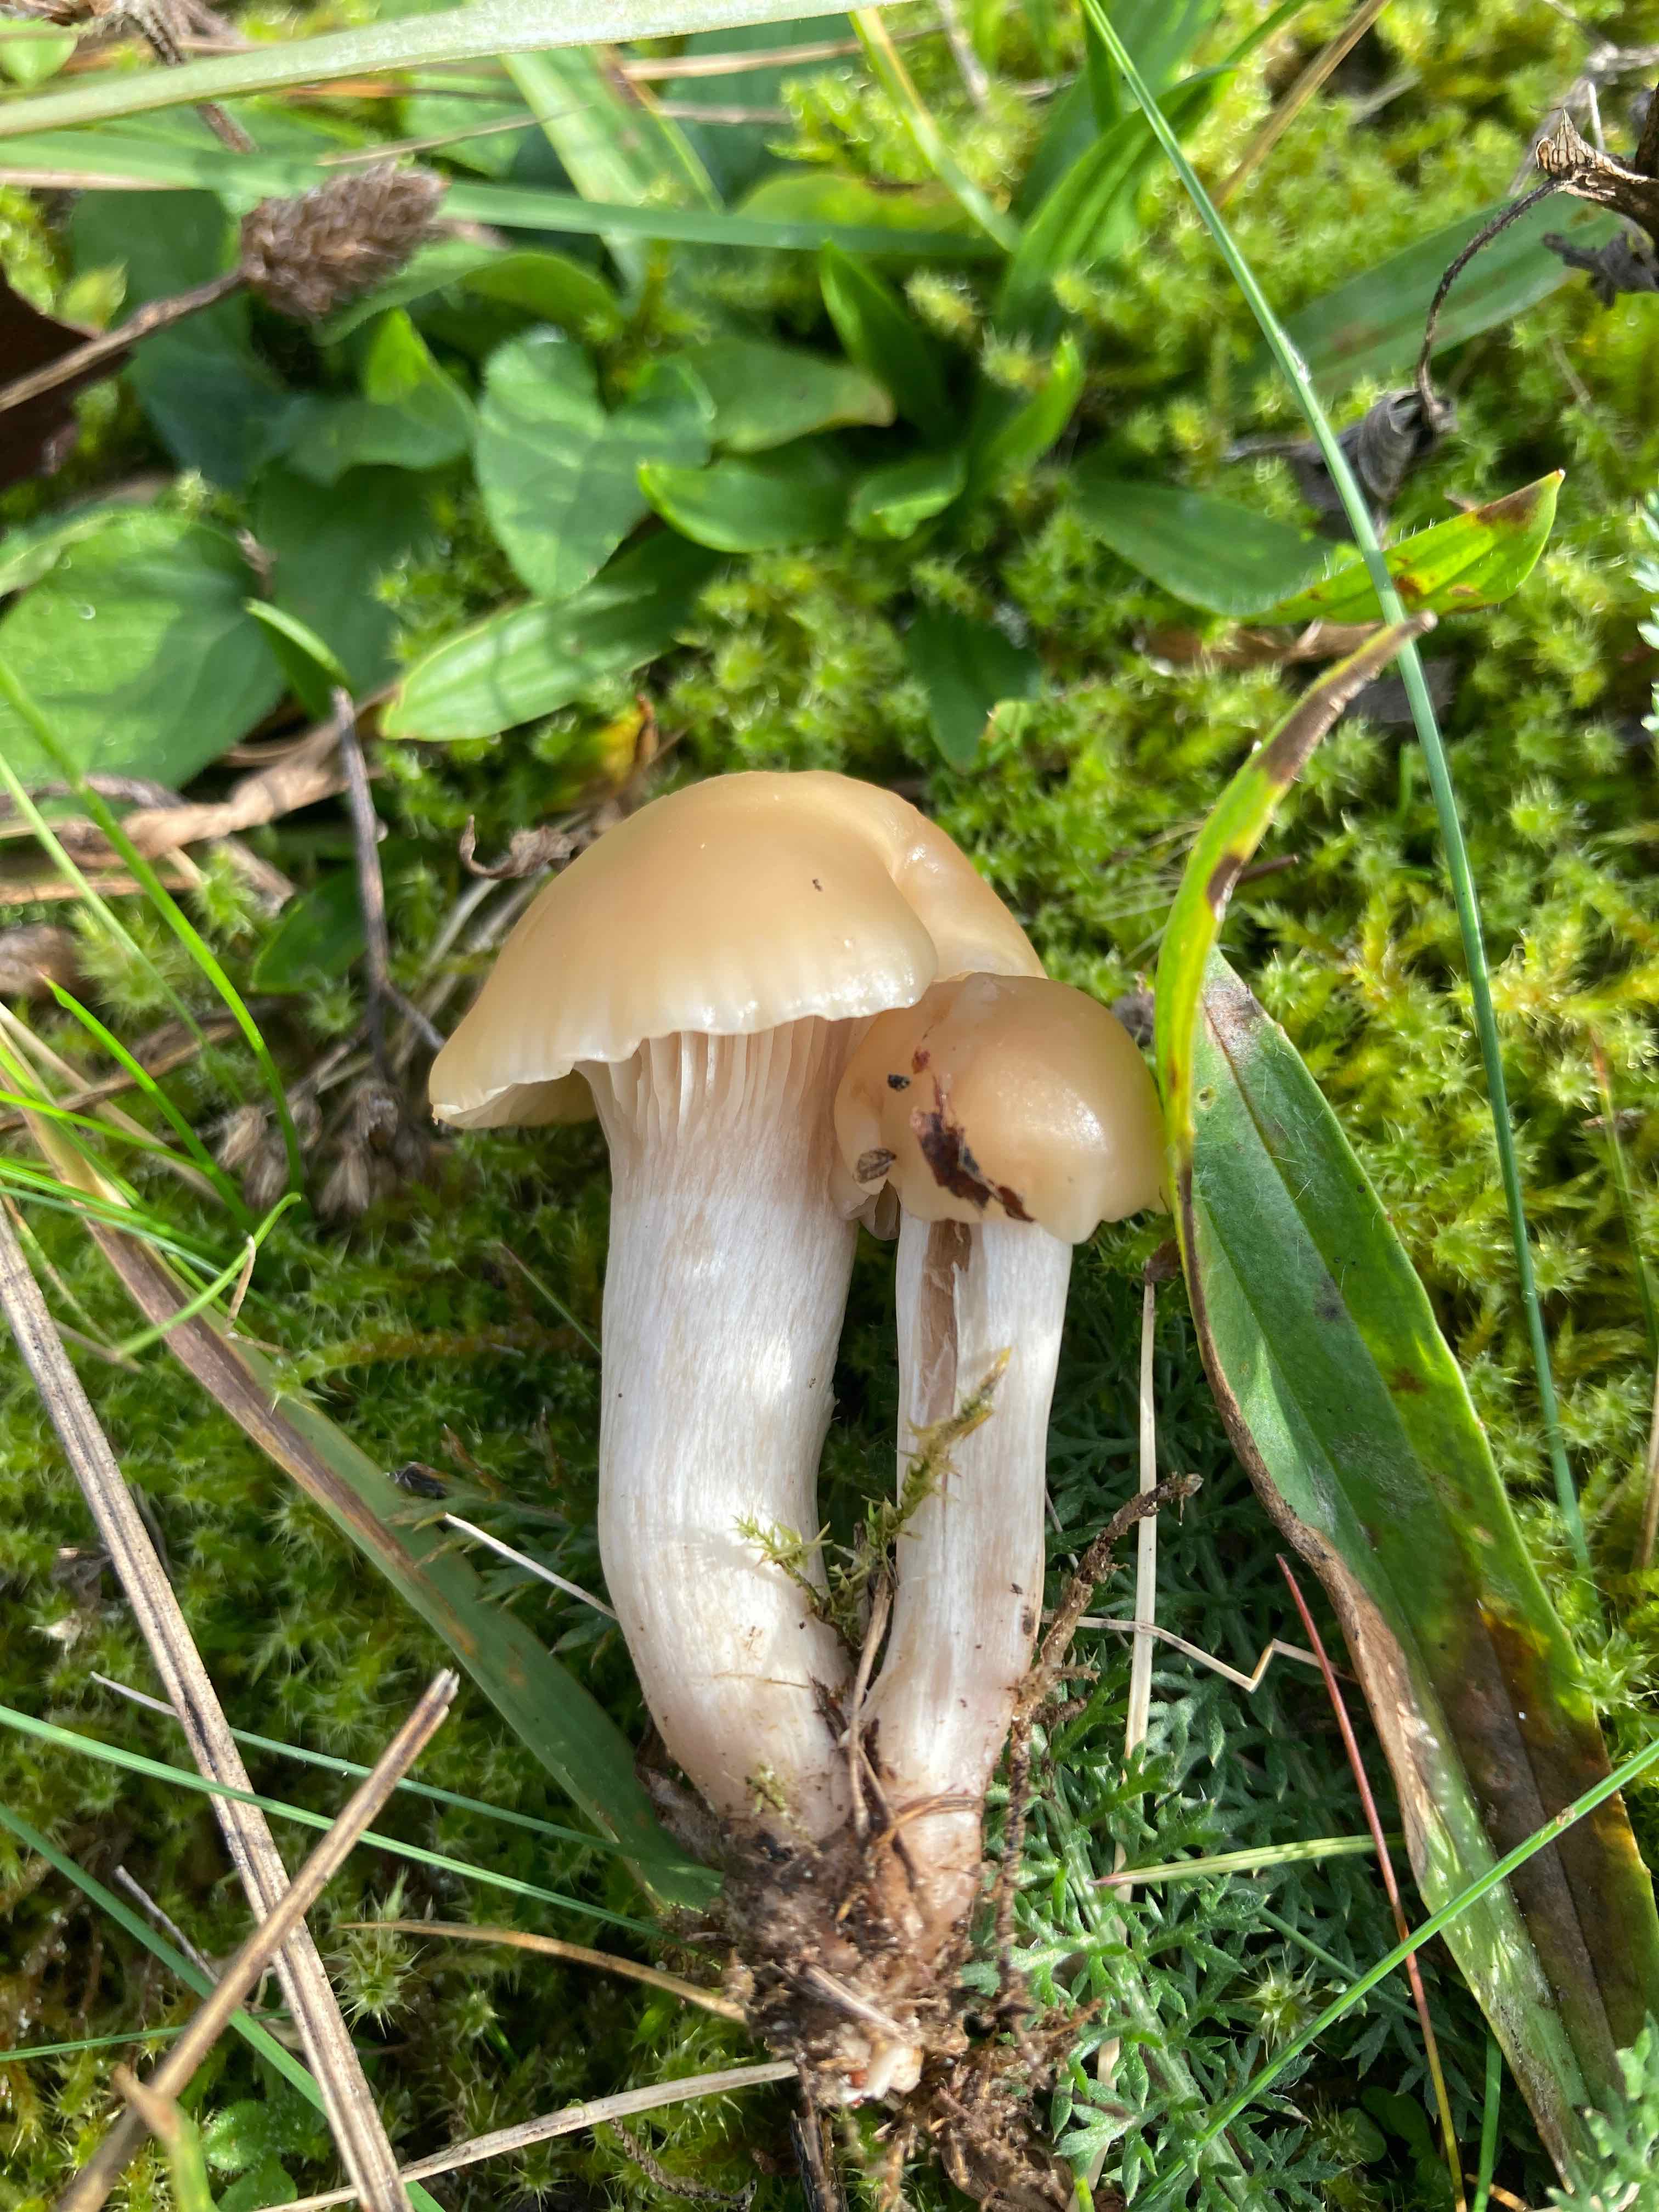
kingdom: Fungi
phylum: Basidiomycota
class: Agaricomycetes
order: Agaricales
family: Hygrophoraceae
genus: Cuphophyllus
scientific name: Cuphophyllus virgineus
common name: isabella-vokshat
